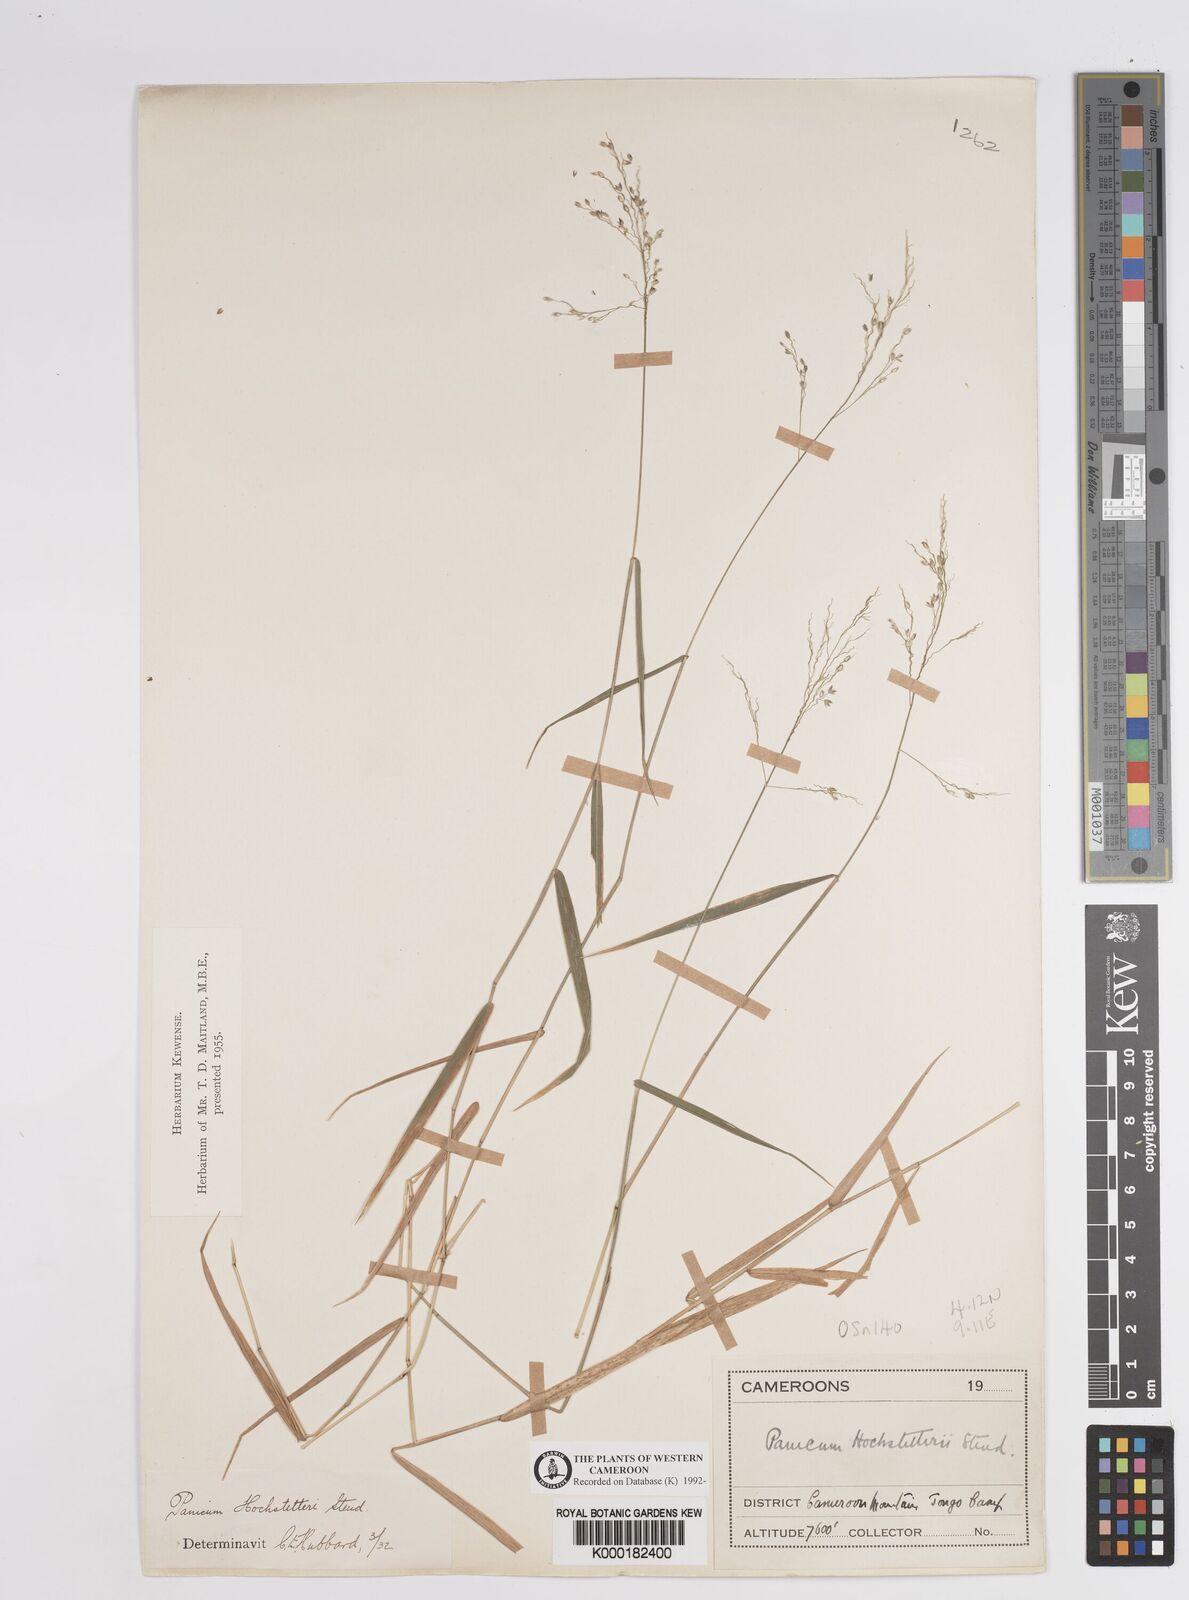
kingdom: Plantae
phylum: Tracheophyta
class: Liliopsida
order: Poales
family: Poaceae
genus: Panicum
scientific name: Panicum hochstetteri
